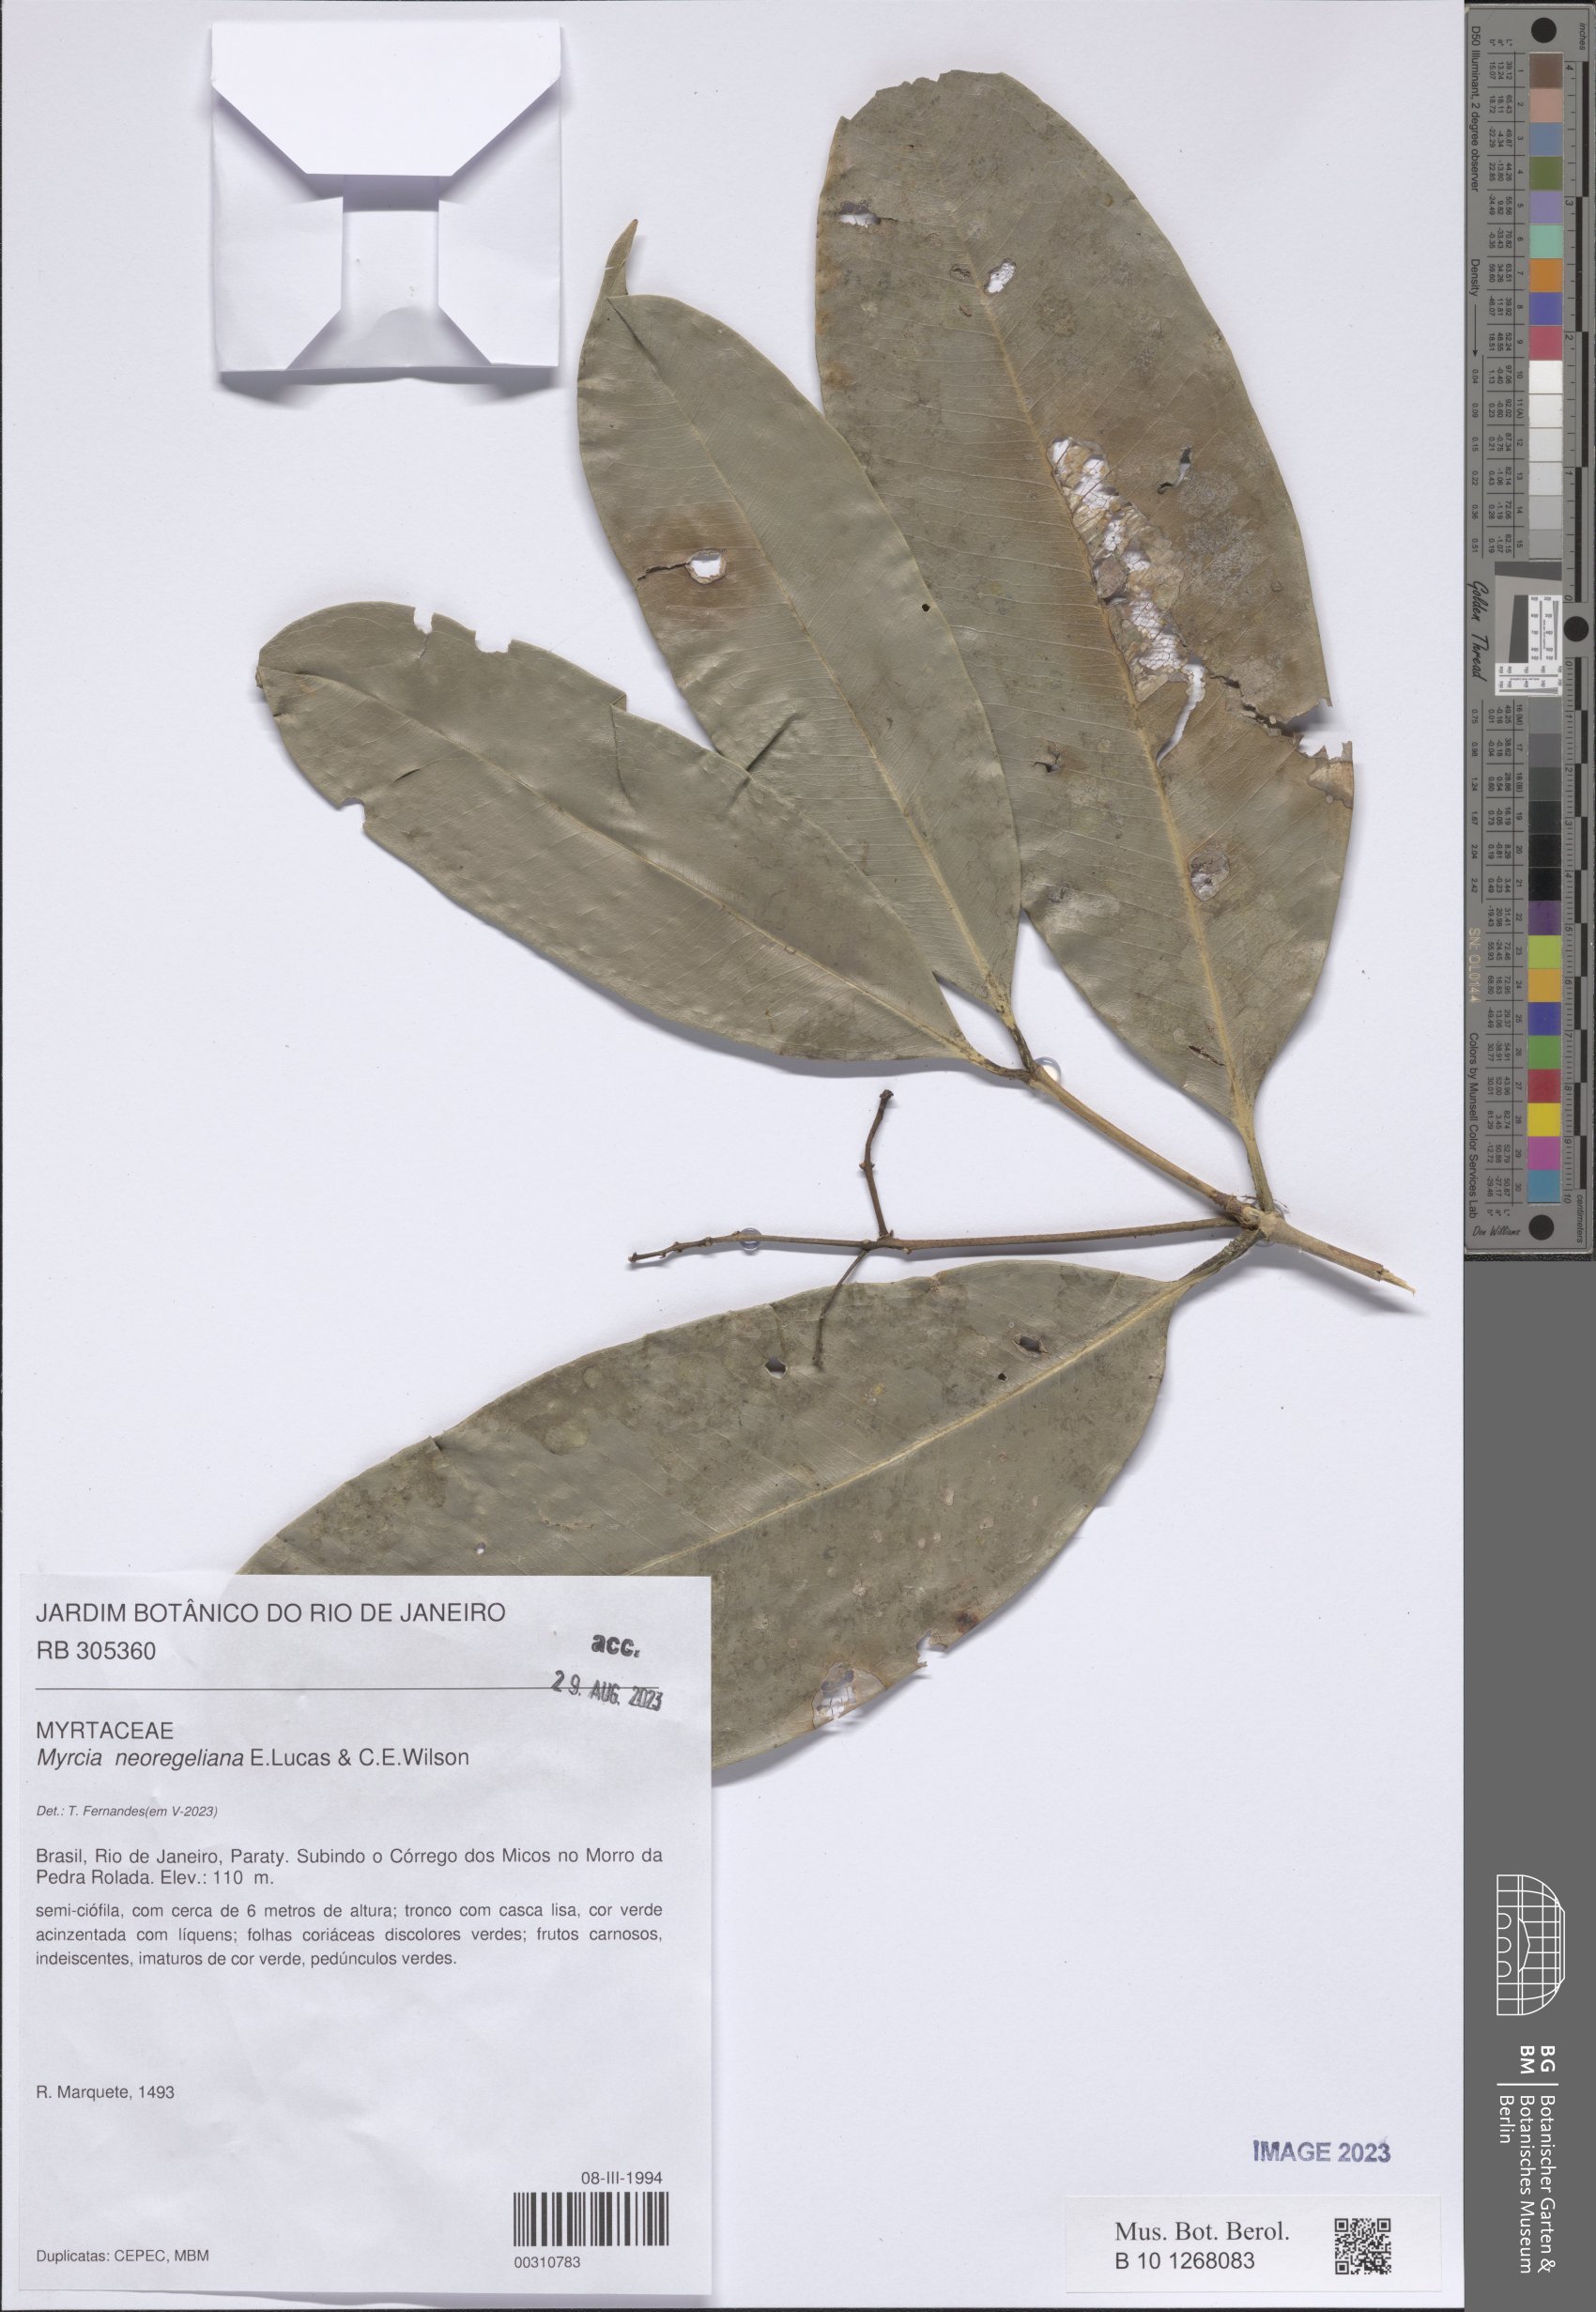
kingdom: Plantae
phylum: Tracheophyta
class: Magnoliopsida
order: Myrtales
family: Myrtaceae
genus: Myrcia
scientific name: Myrcia neoregeliana
